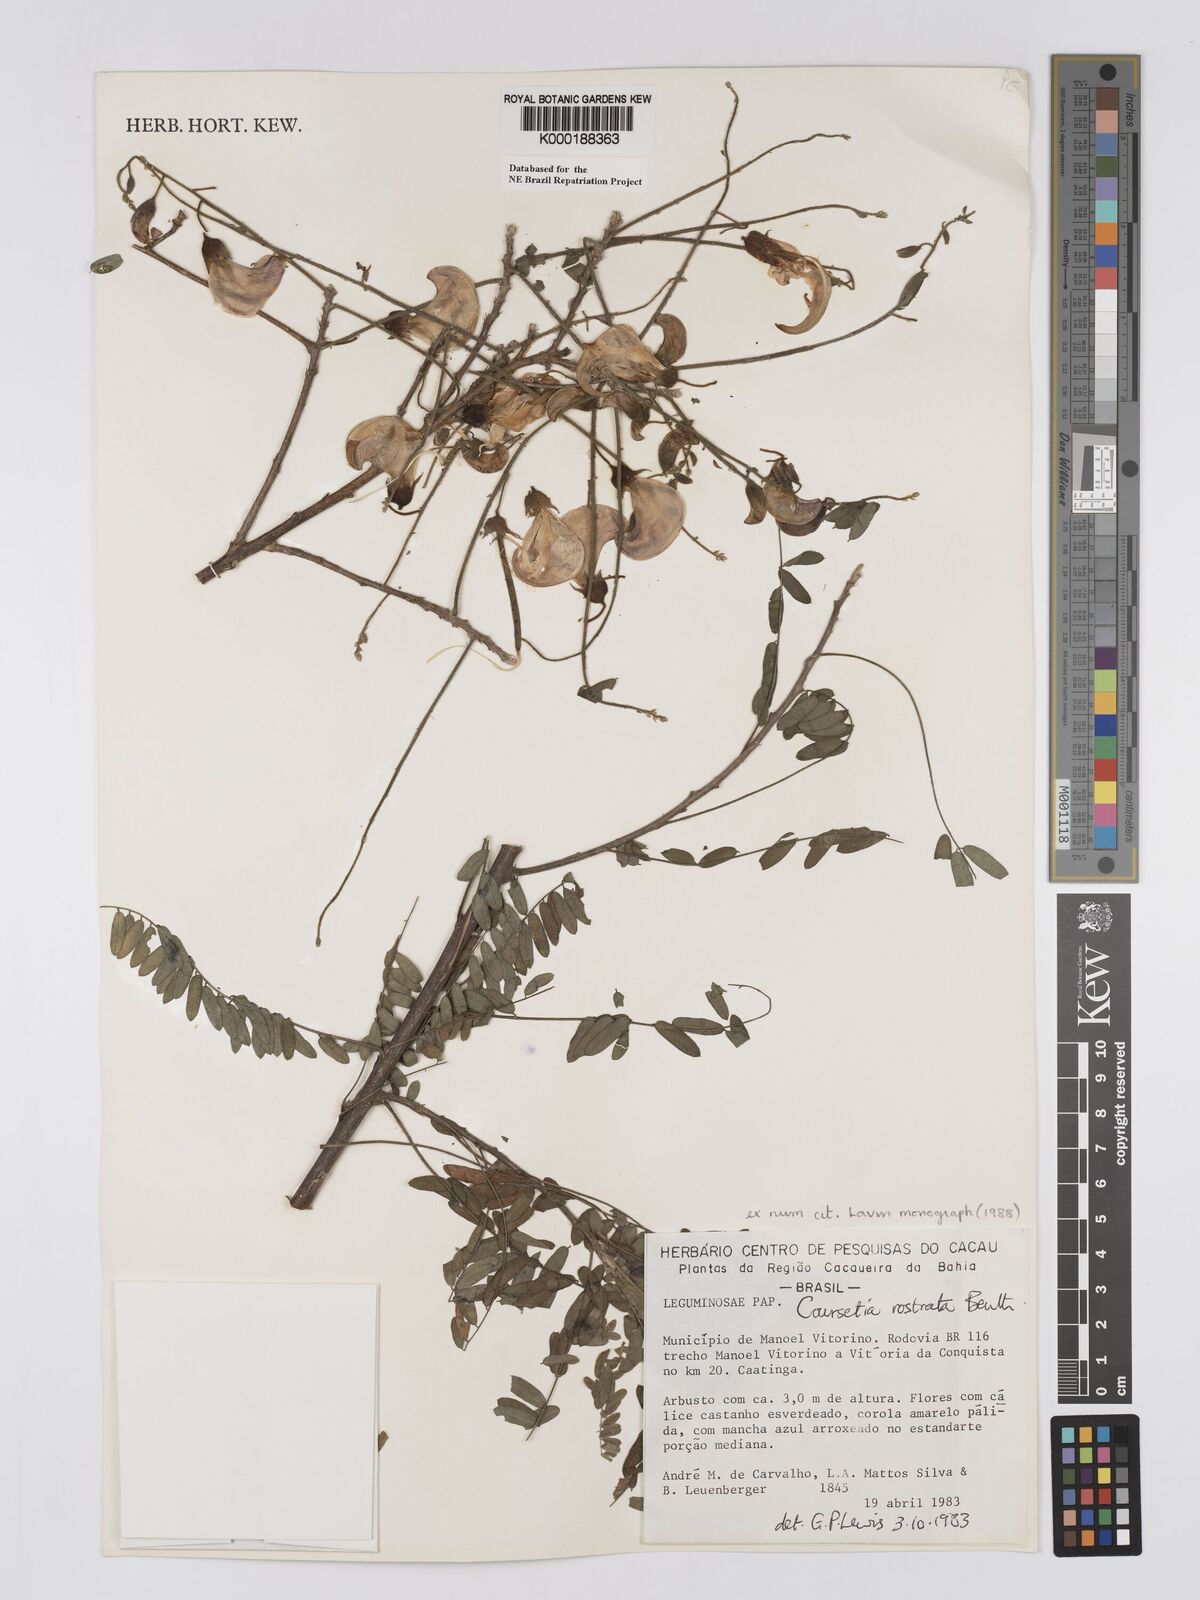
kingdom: Plantae
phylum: Tracheophyta
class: Magnoliopsida
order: Fabales
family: Fabaceae
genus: Coursetia
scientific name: Coursetia rostrata
